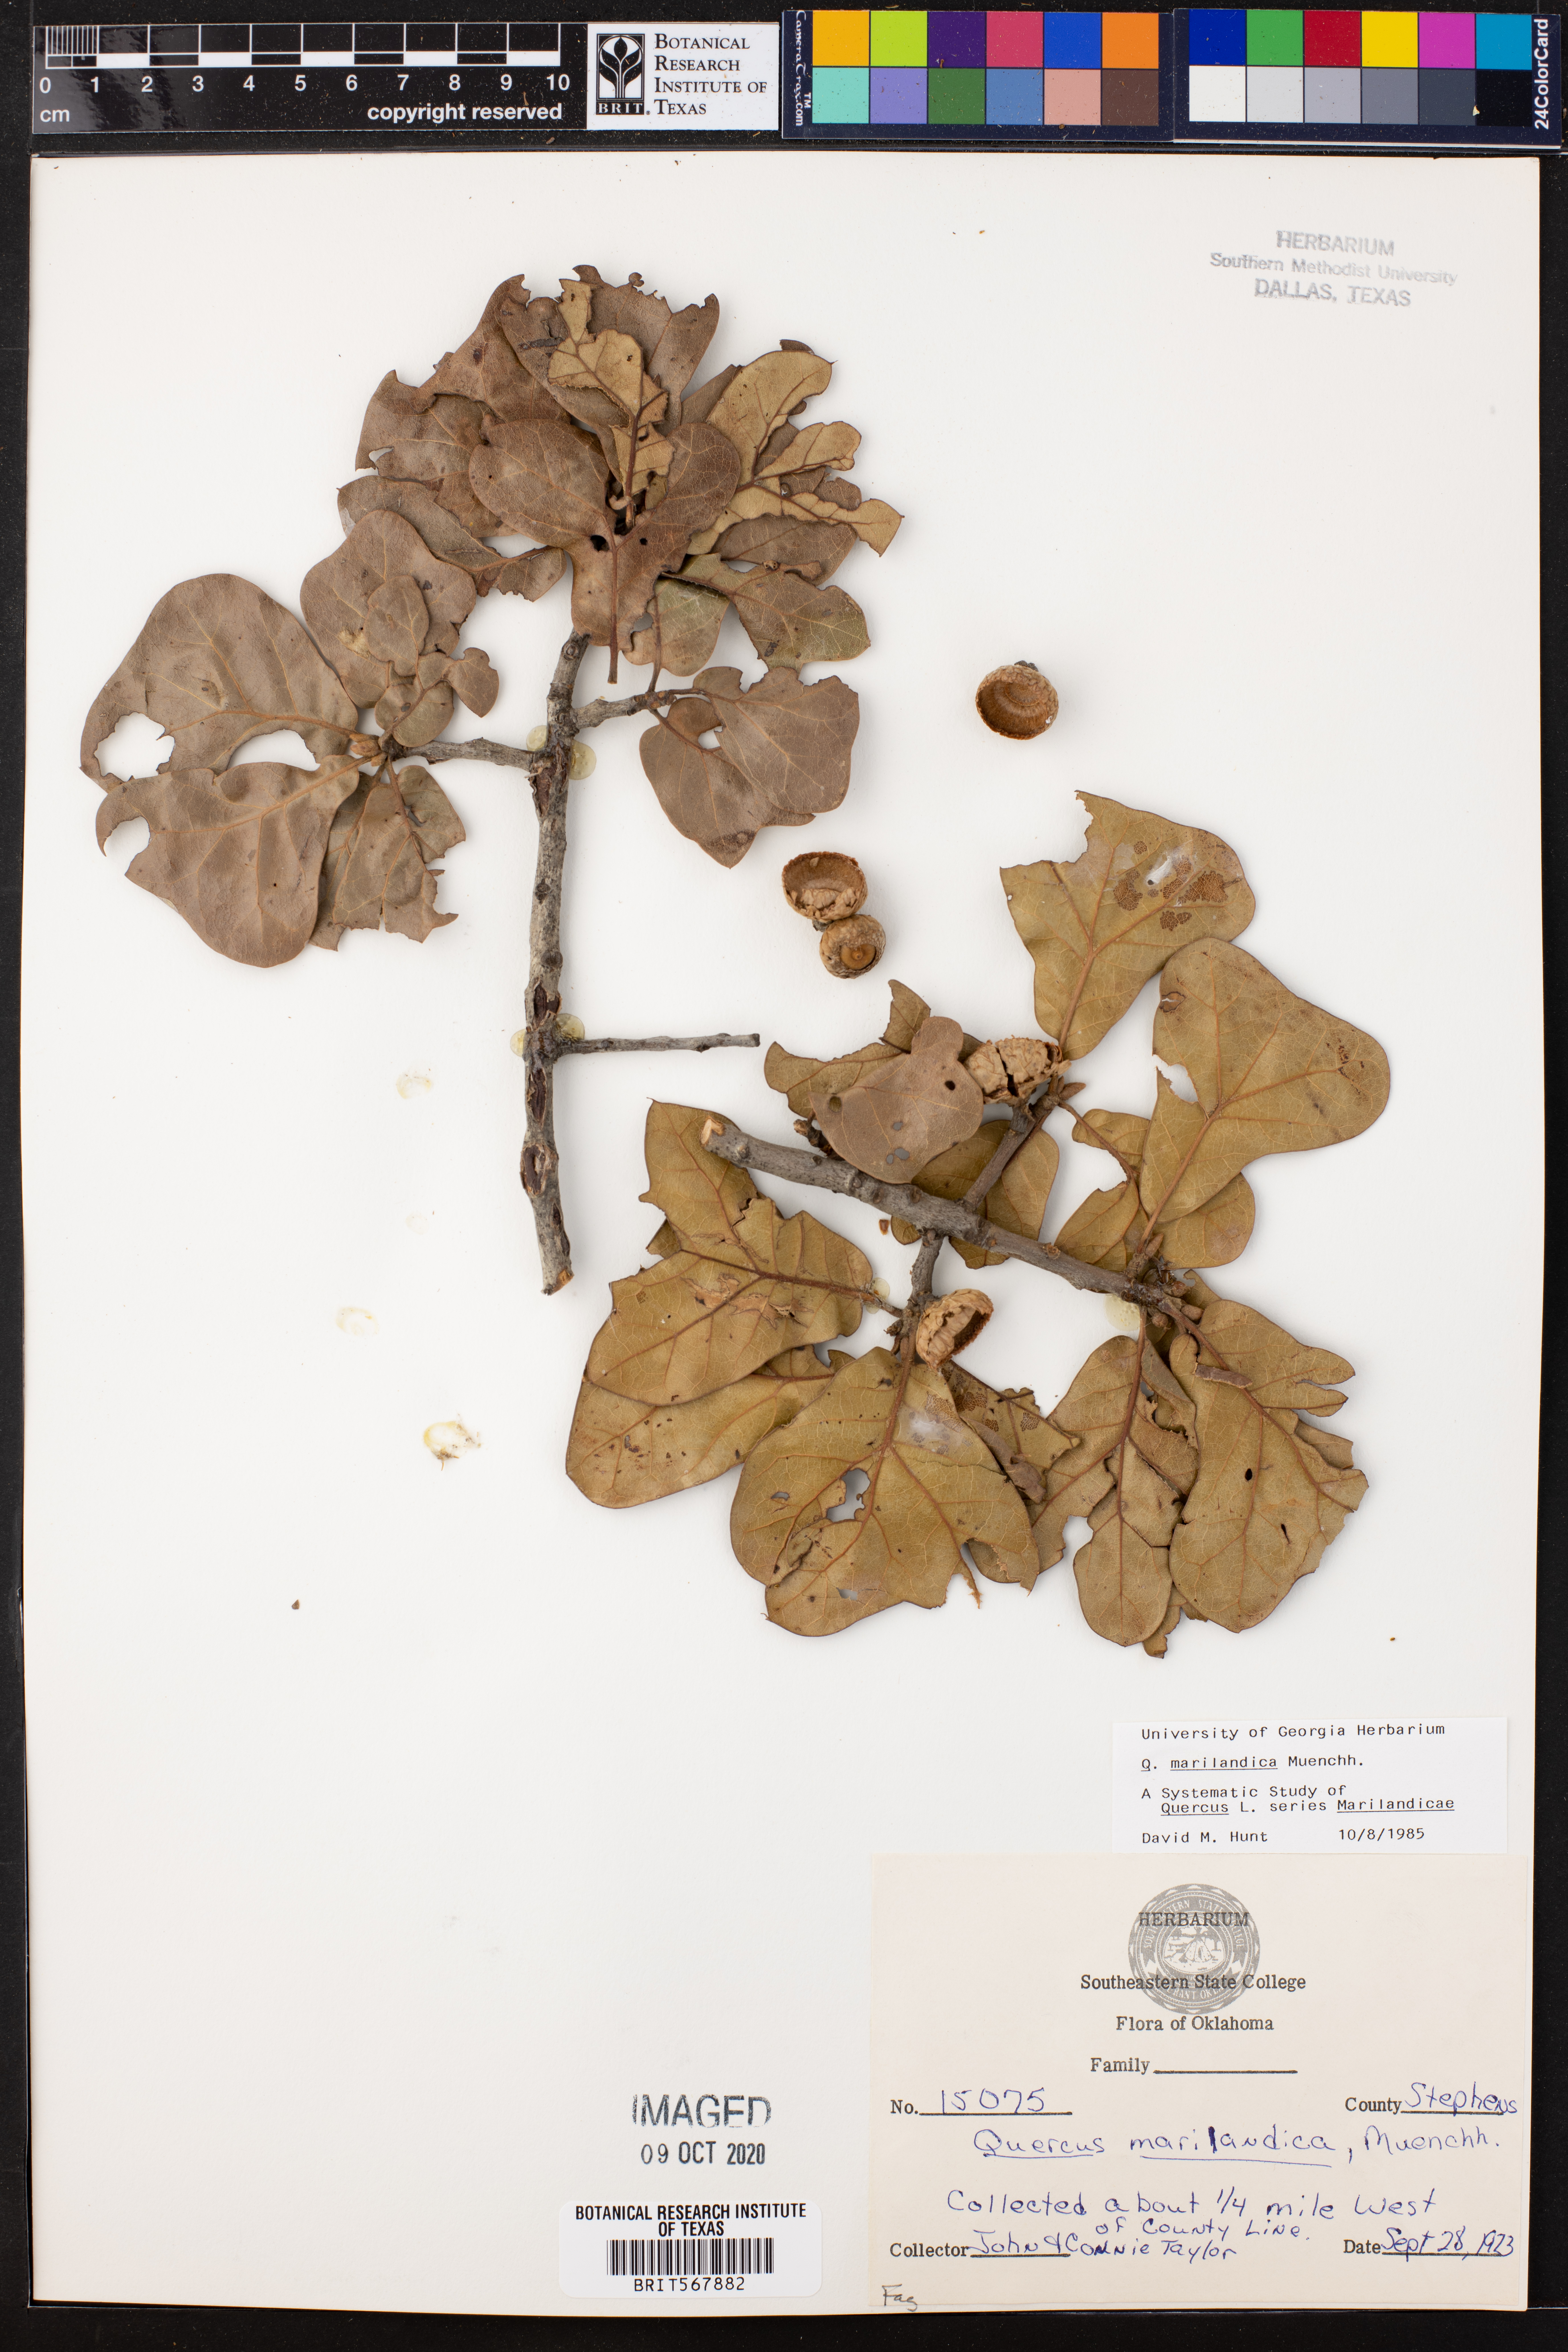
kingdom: Plantae
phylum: Tracheophyta
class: Magnoliopsida
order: Fagales
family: Fagaceae
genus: Quercus
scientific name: Quercus marilandica
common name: Blackjack oak
